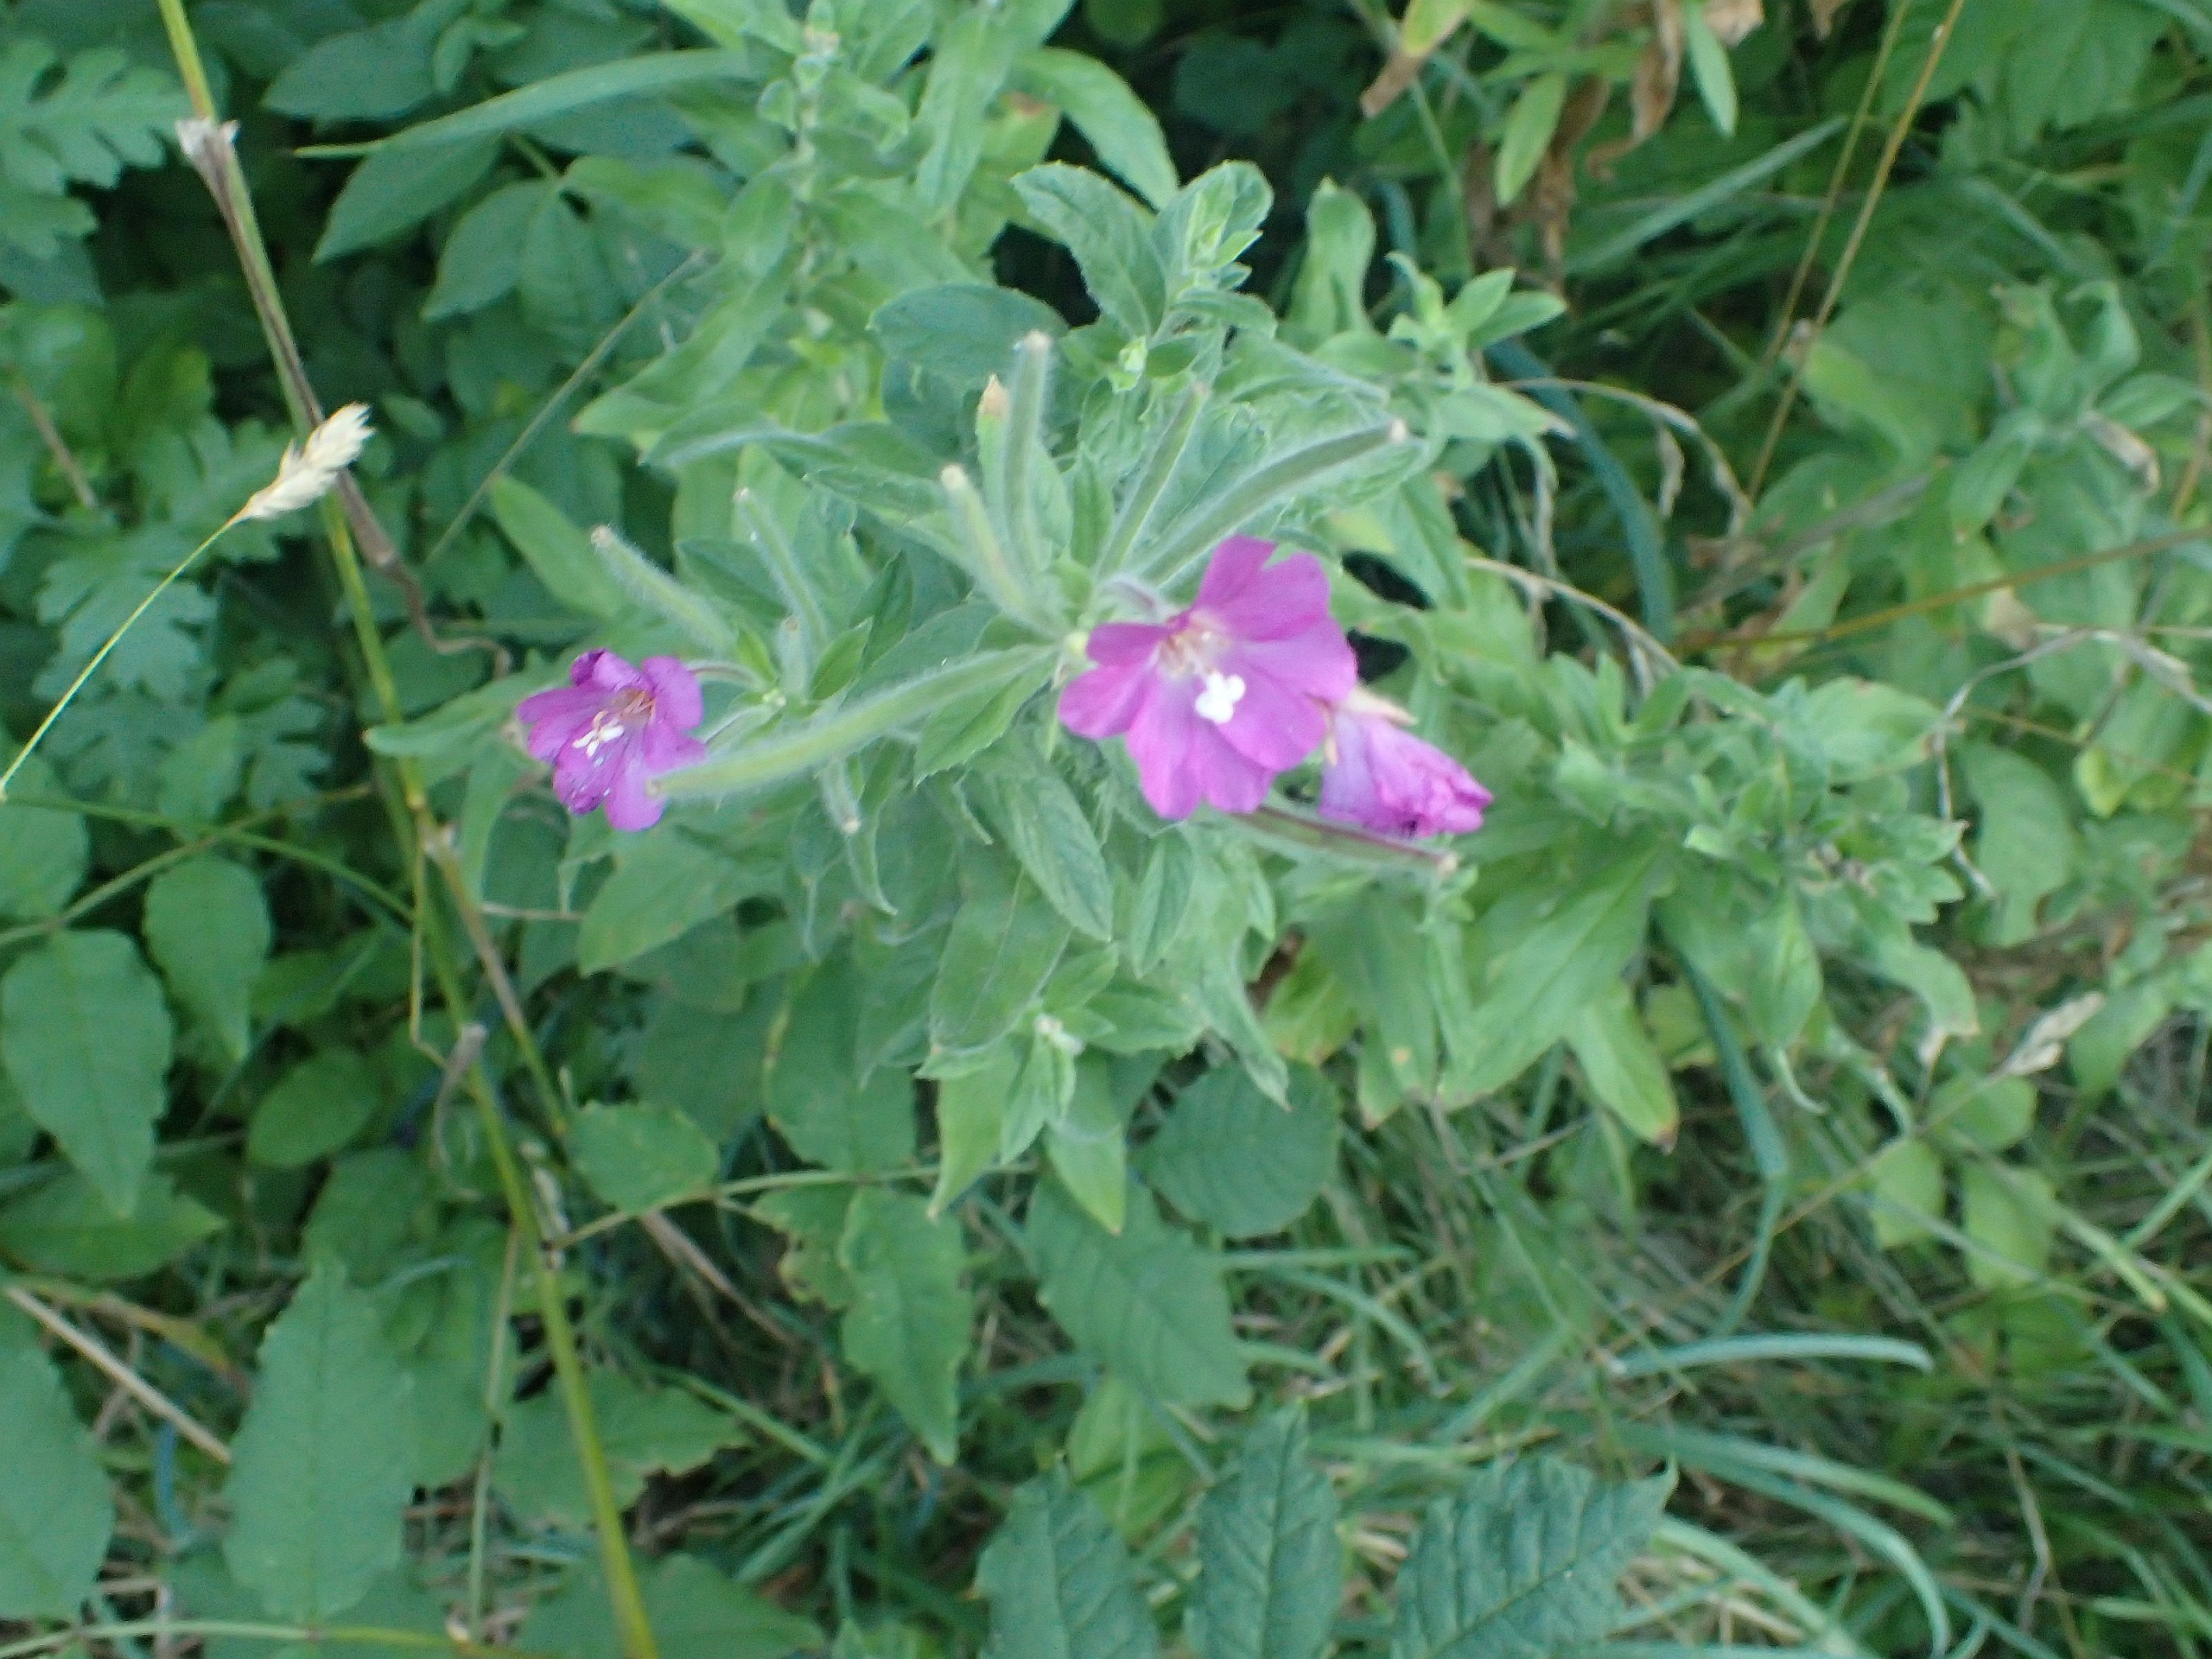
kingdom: Plantae
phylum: Tracheophyta
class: Magnoliopsida
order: Myrtales
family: Onagraceae
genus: Epilobium
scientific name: Epilobium hirsutum
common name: Lådden dueurt
